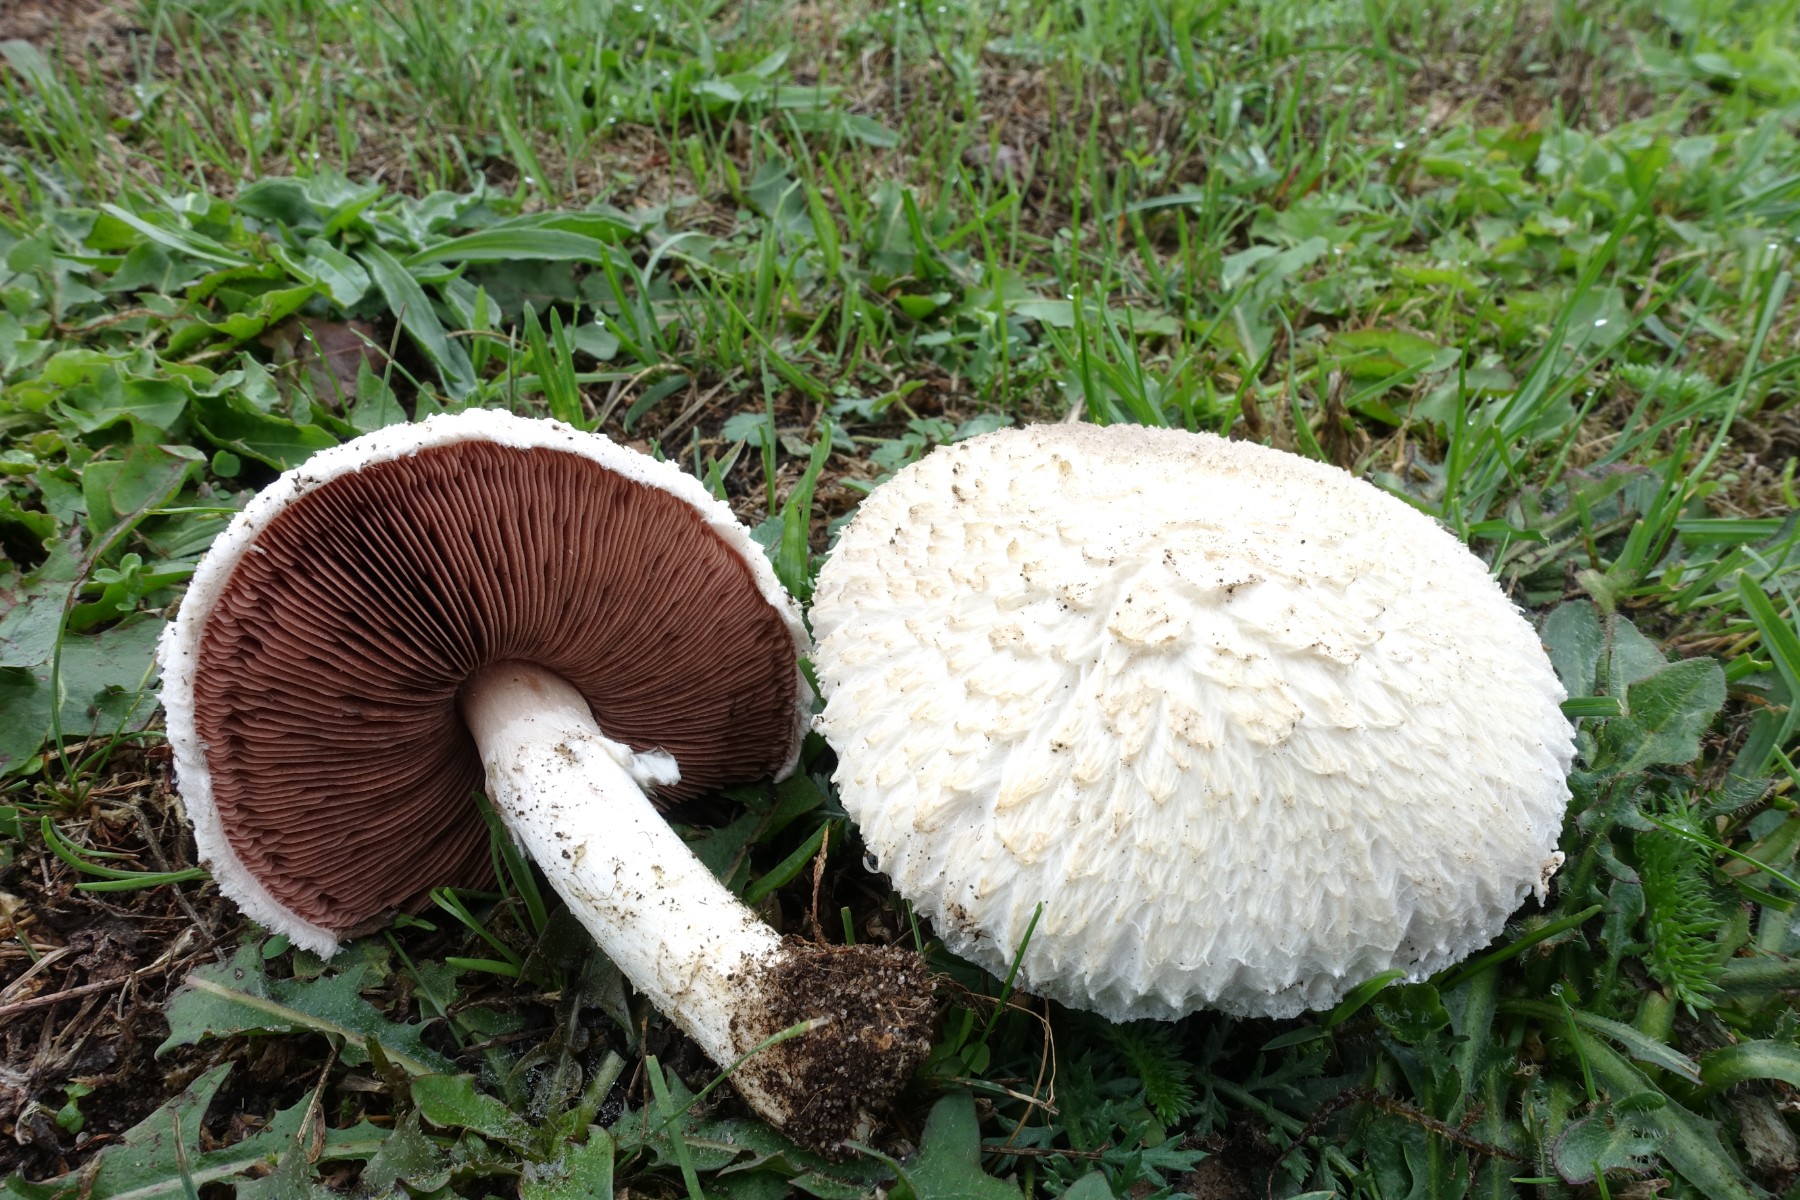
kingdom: Fungi
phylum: Basidiomycota
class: Agaricomycetes
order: Agaricales
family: Agaricaceae
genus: Agaricus
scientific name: Agaricus campestris
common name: mark-champignon
